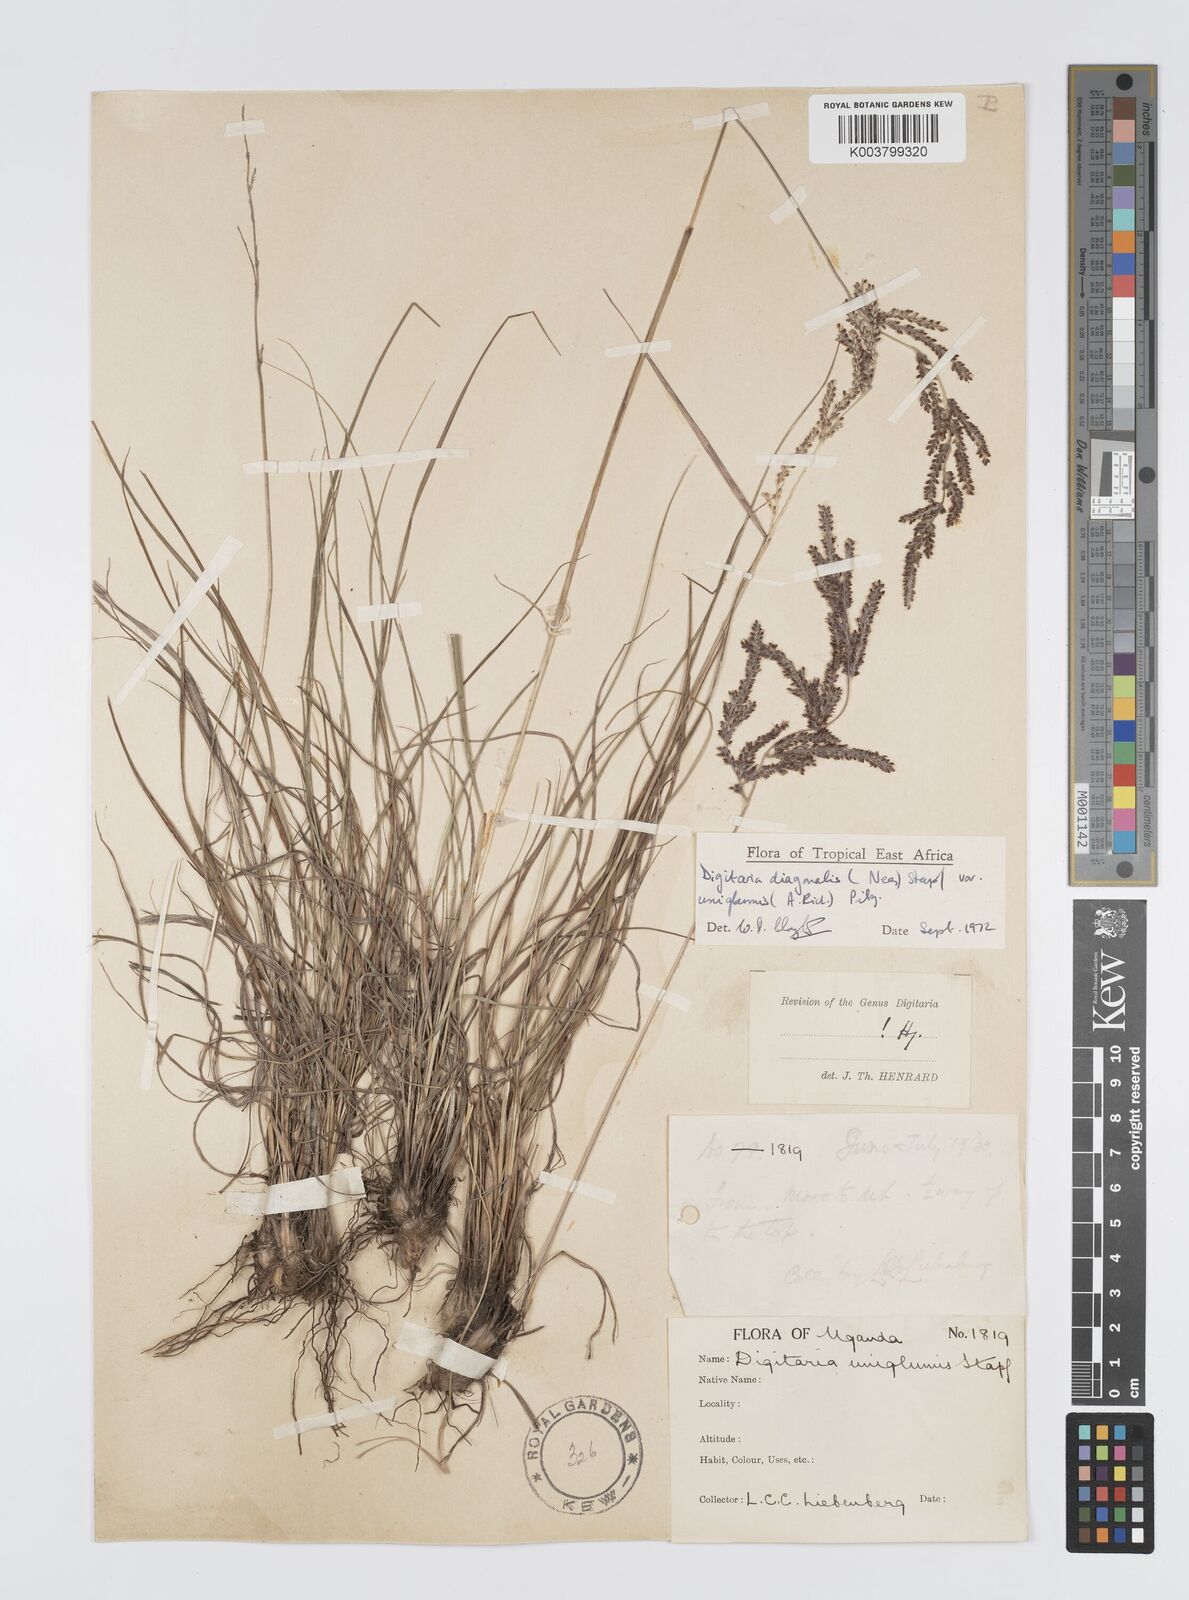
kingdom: Plantae
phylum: Tracheophyta
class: Liliopsida
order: Poales
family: Poaceae
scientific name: Poaceae
